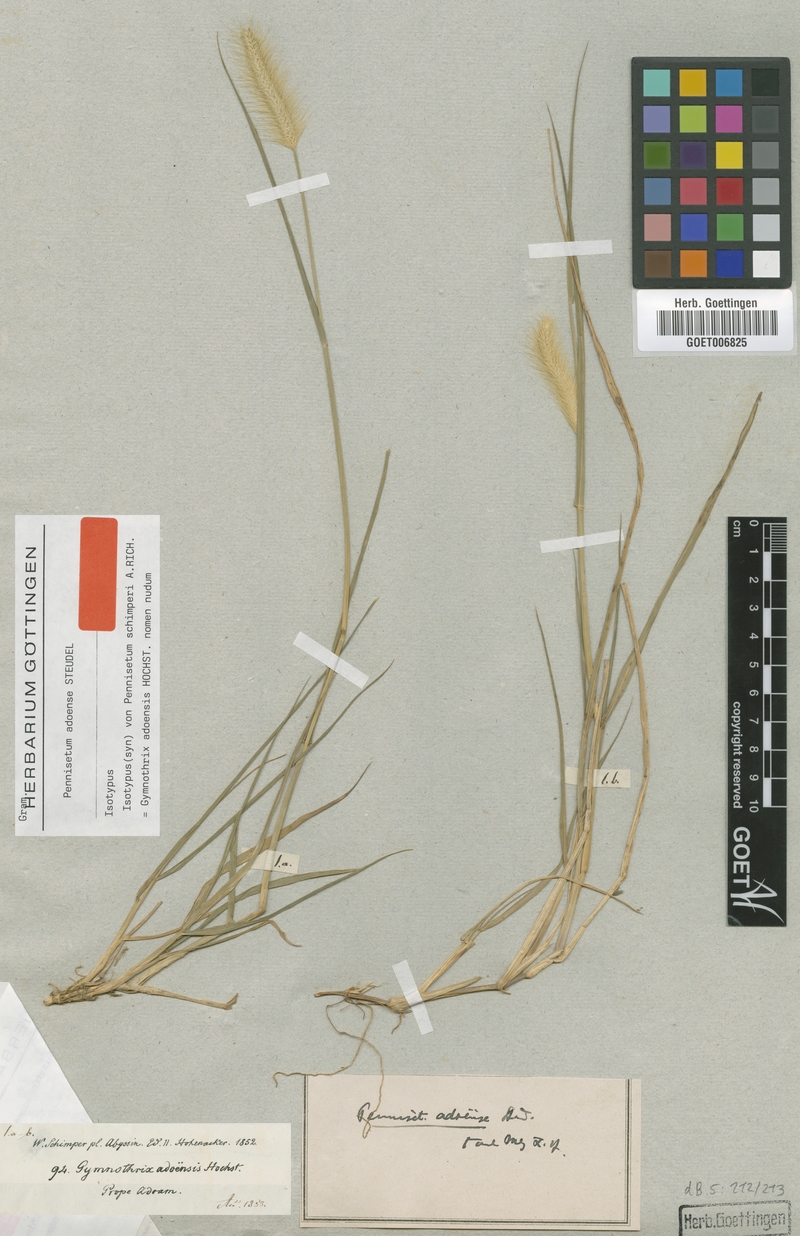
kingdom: Plantae
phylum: Tracheophyta
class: Liliopsida
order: Poales
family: Poaceae
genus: Cenchrus
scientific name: Cenchrus petiolaris
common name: Grass
